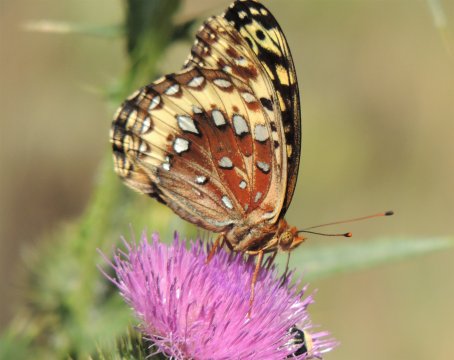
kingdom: Animalia
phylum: Arthropoda
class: Insecta
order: Lepidoptera
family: Nymphalidae
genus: Speyeria
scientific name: Speyeria cybele
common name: Great Spangled Fritillary
